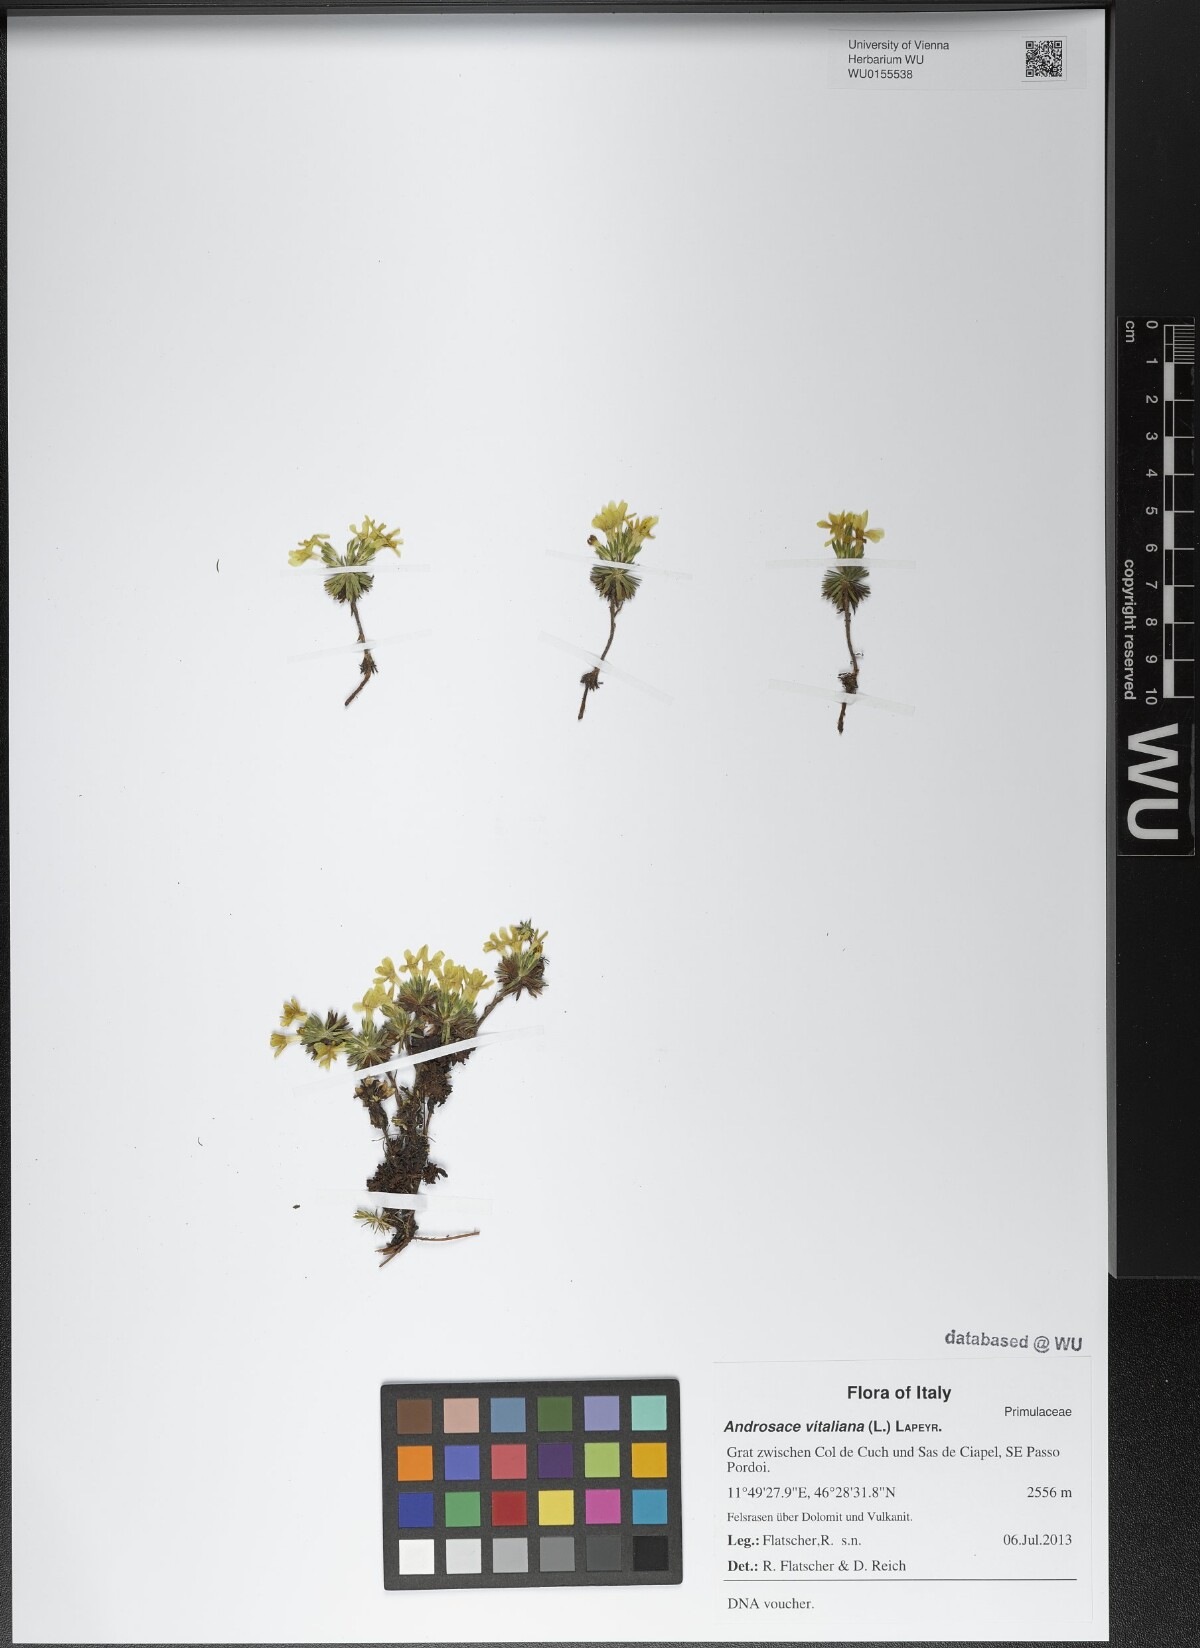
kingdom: Plantae
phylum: Tracheophyta
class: Magnoliopsida
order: Ericales
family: Primulaceae
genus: Androsace
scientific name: Androsace vitaliana
